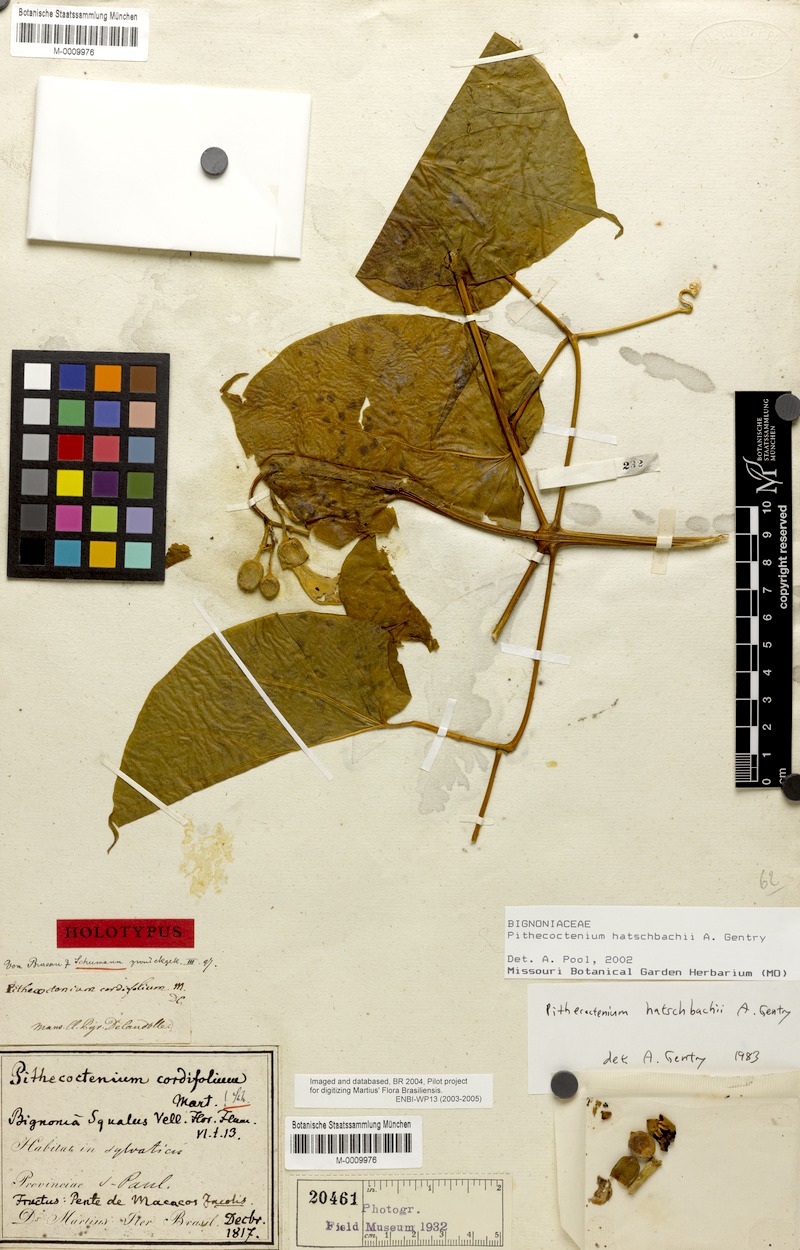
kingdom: Plantae
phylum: Tracheophyta
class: Magnoliopsida
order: Lamiales
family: Bignoniaceae
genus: Amphilophium
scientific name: Amphilophium crucigerum
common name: Monkey comb
